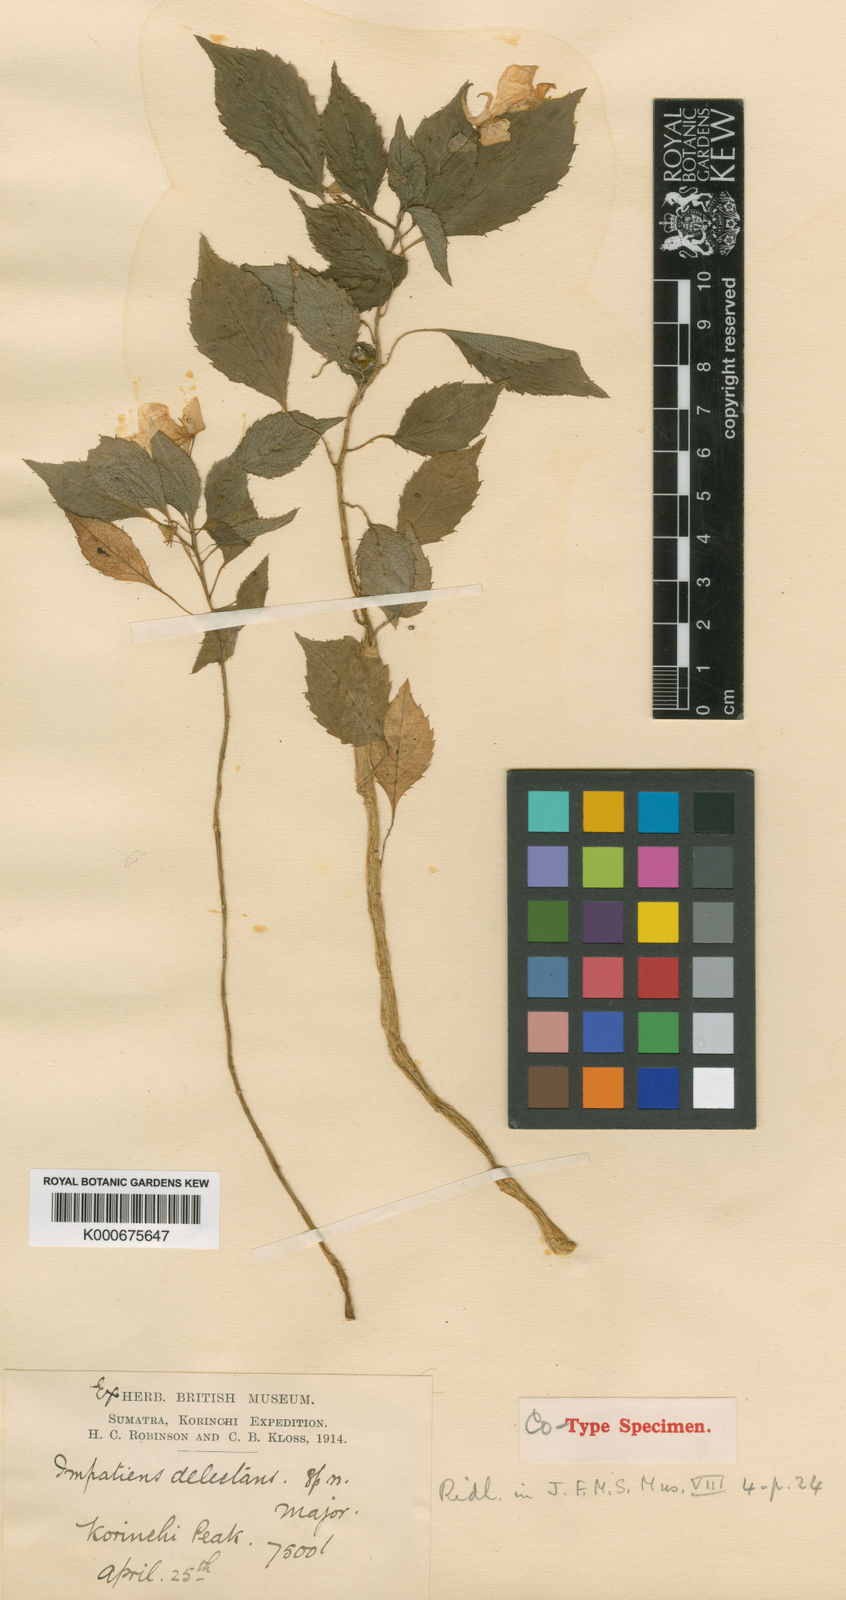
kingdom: Plantae
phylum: Tracheophyta
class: Magnoliopsida
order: Ericales
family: Balsaminaceae
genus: Impatiens
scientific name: Impatiens delectans
